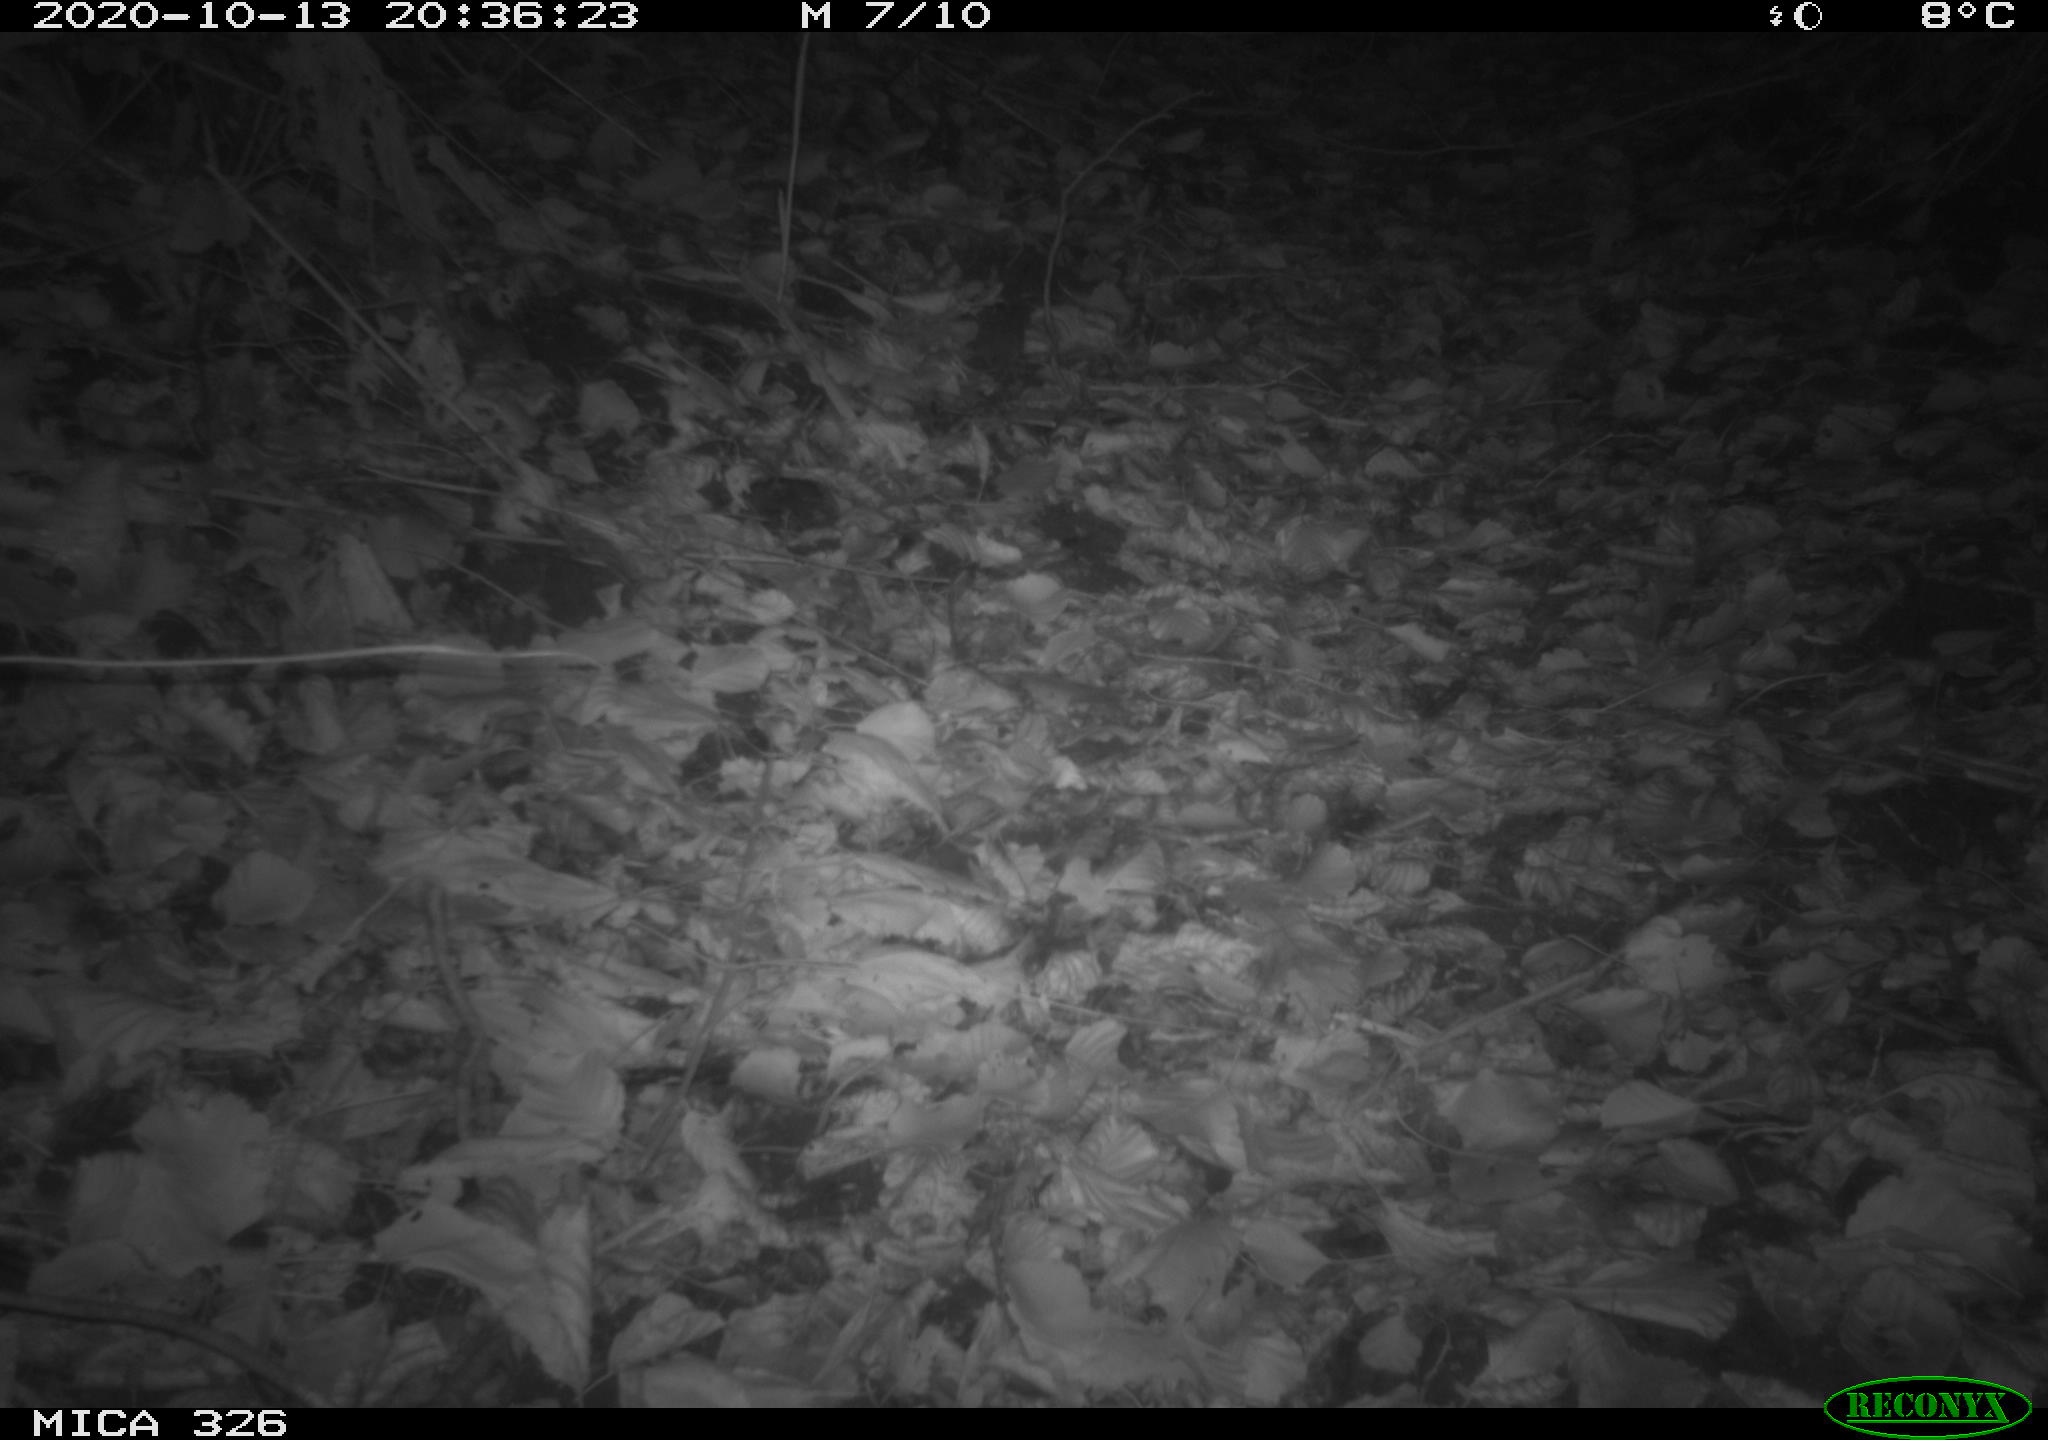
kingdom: Animalia
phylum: Chordata
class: Mammalia
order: Carnivora
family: Mustelidae
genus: Lutra
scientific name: Lutra lutra
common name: European otter
